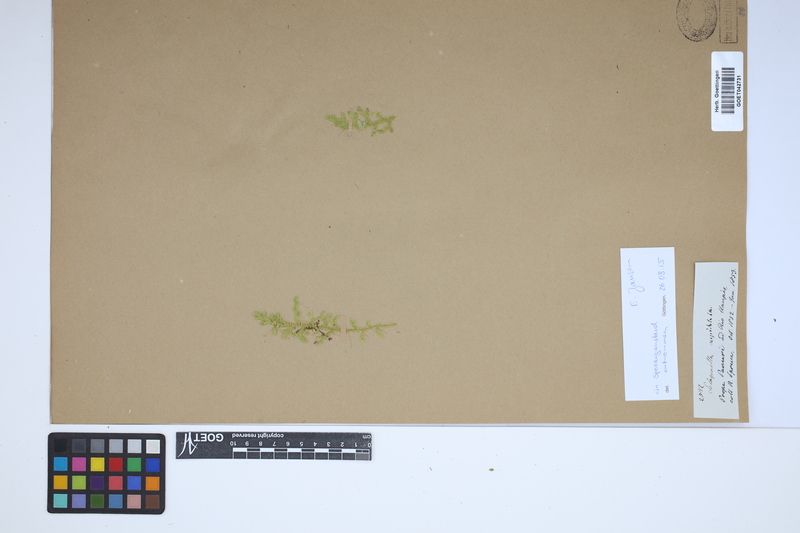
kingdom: Plantae
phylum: Tracheophyta
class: Lycopodiopsida
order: Selaginellales
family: Selaginellaceae
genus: Selaginella
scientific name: Selaginella pallescens
